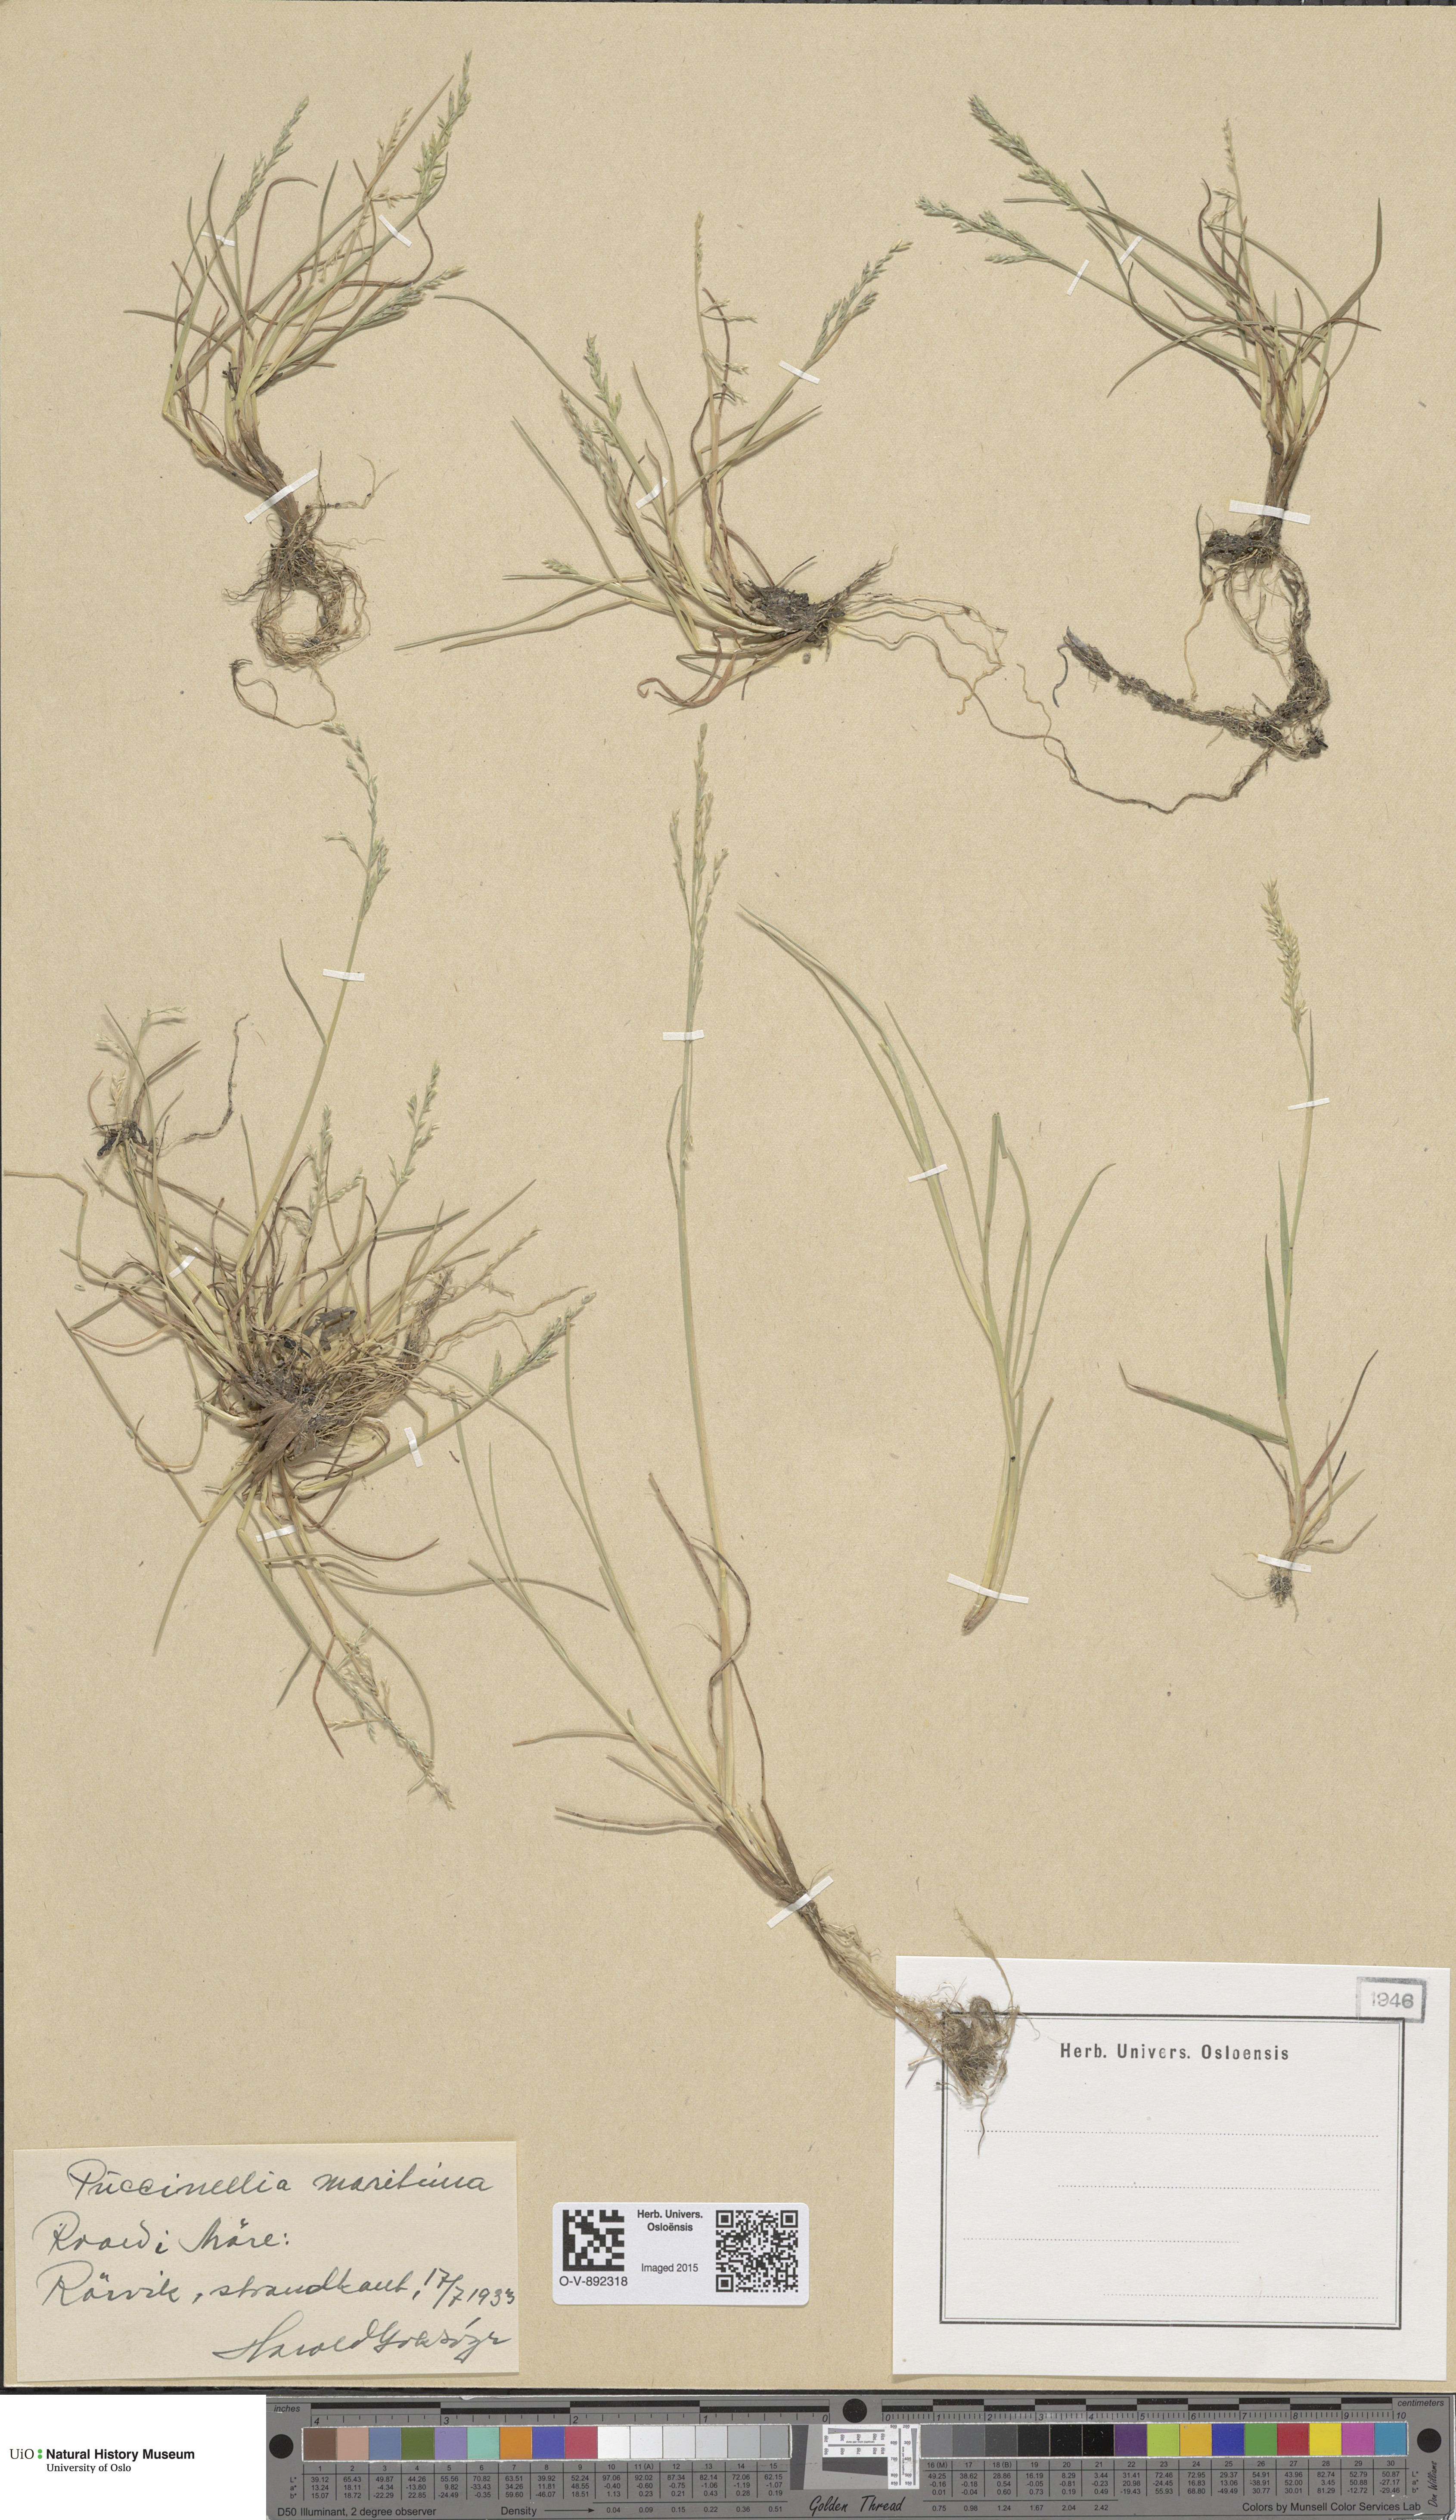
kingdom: Plantae
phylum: Tracheophyta
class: Liliopsida
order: Poales
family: Poaceae
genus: Puccinellia
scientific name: Puccinellia maritima
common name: Common saltmarsh grass
